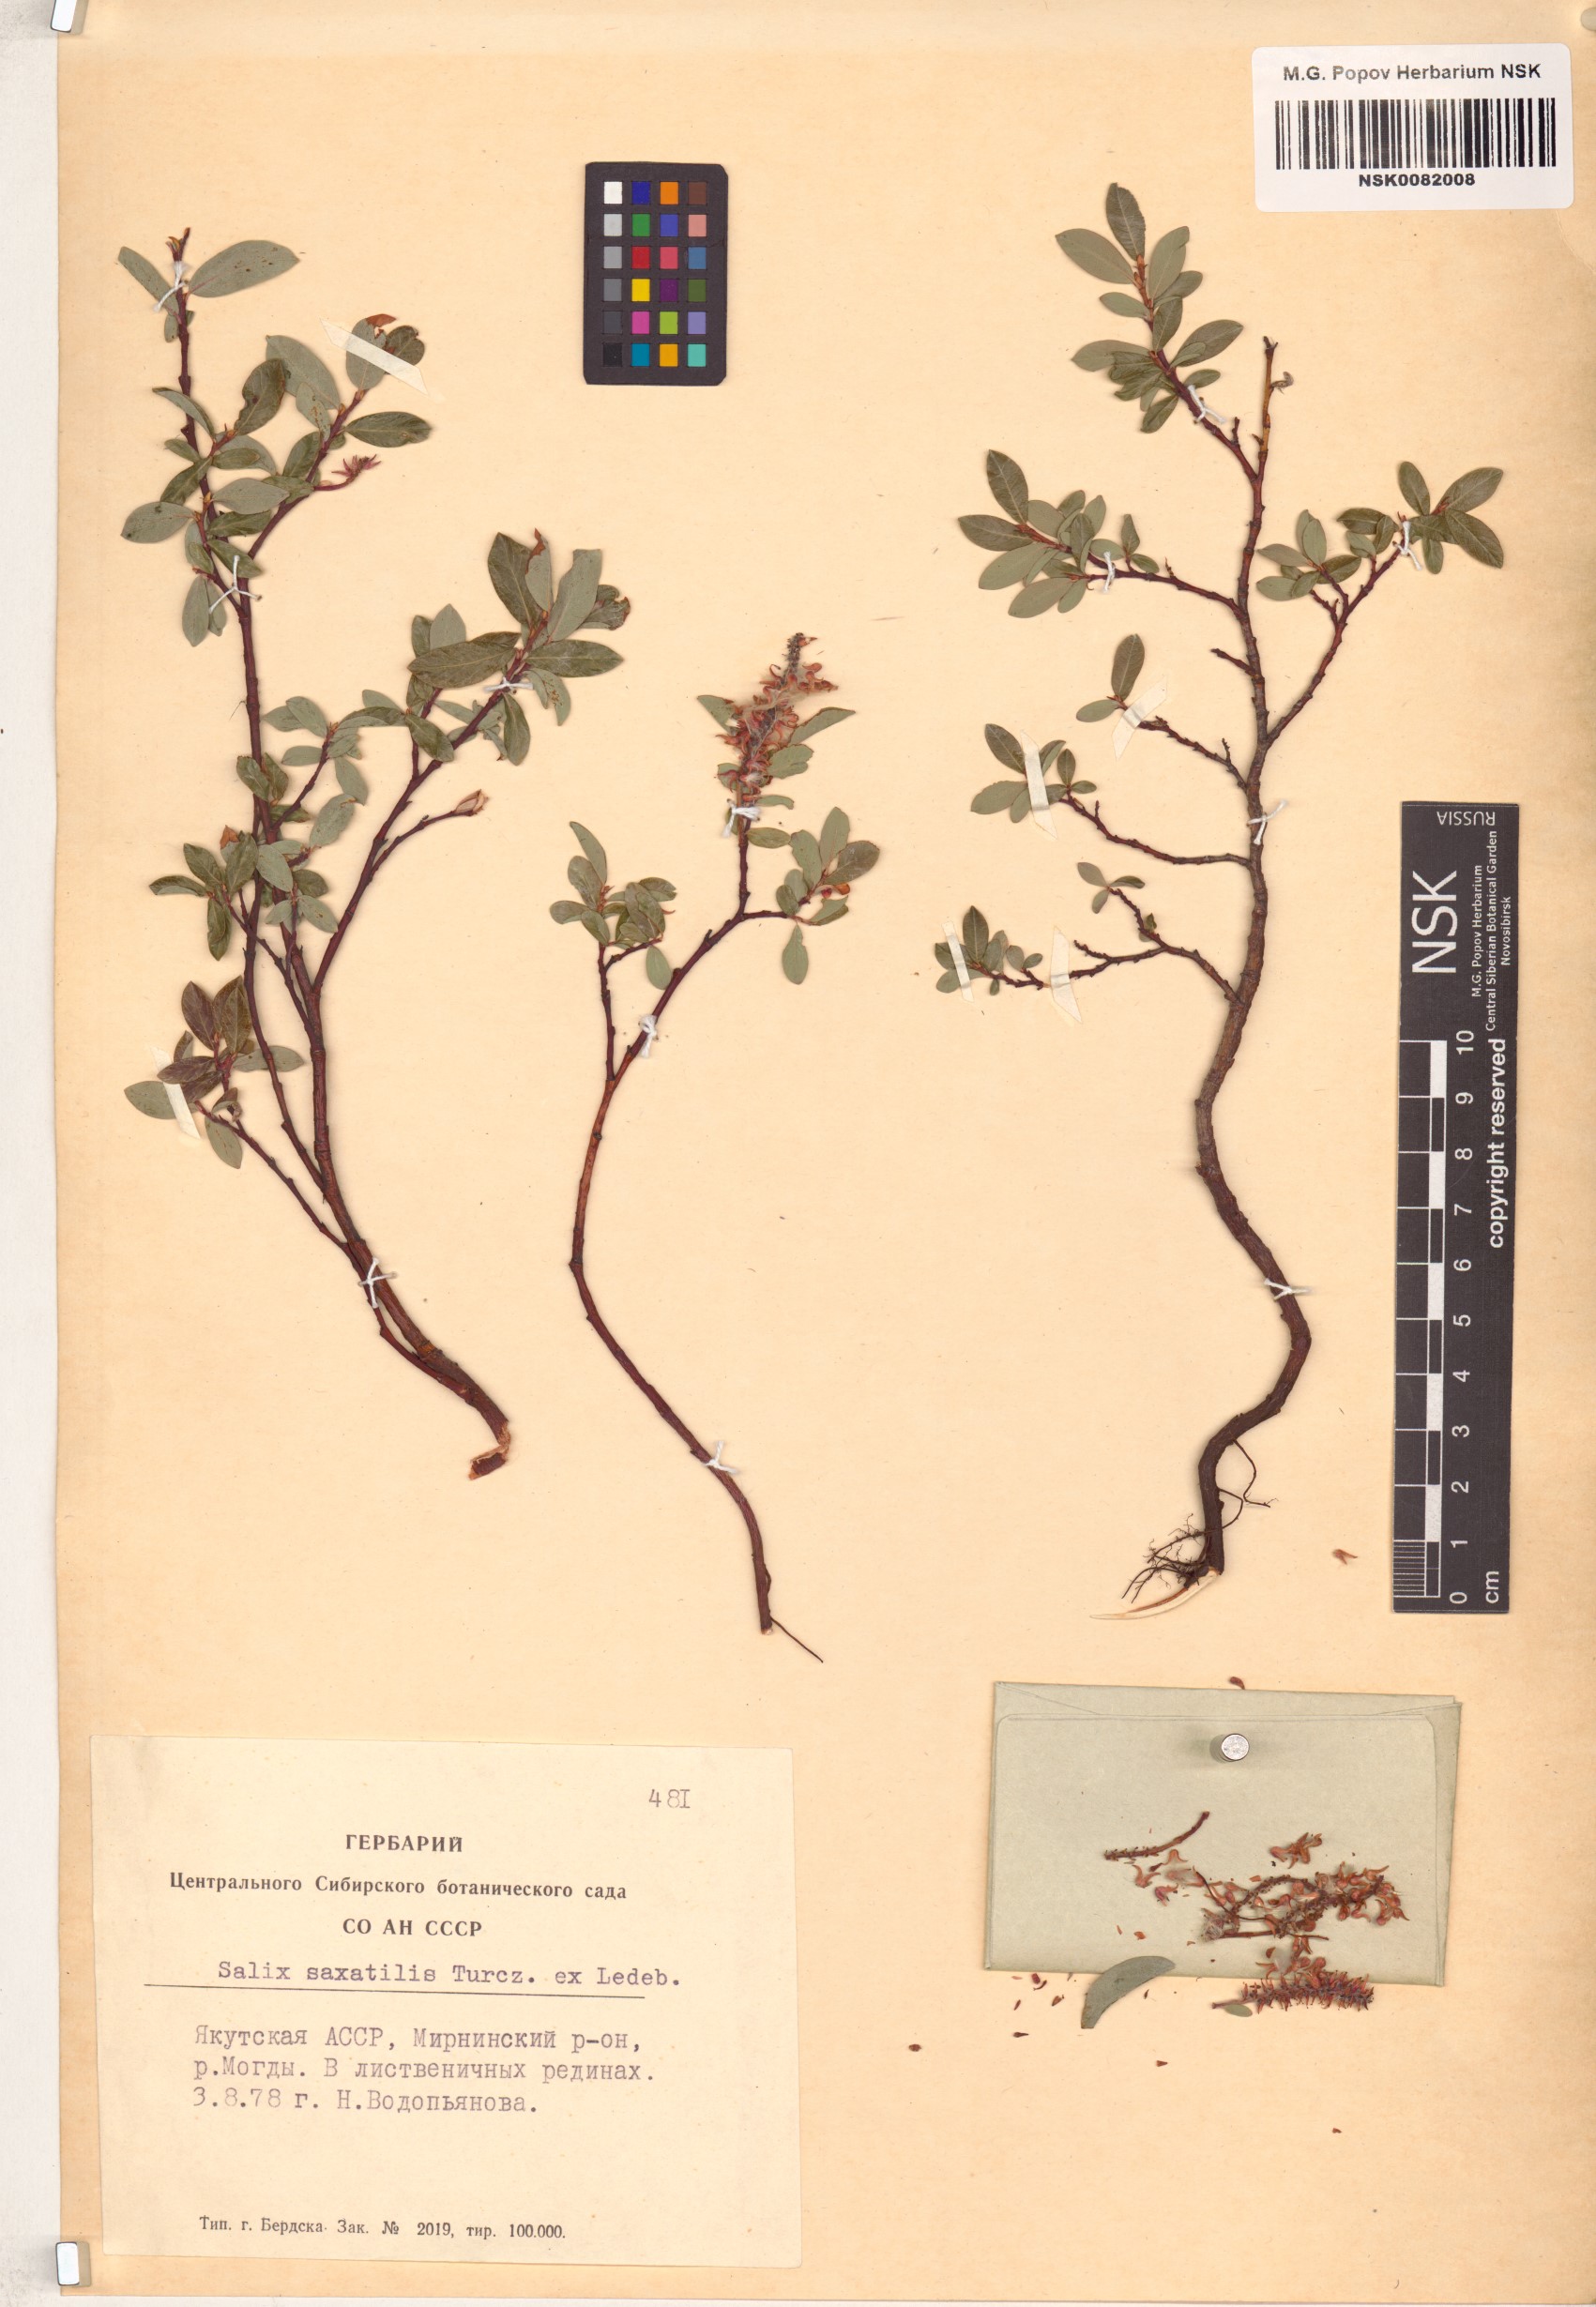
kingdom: Plantae
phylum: Tracheophyta
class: Magnoliopsida
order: Malpighiales
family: Salicaceae
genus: Salix
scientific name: Salix saxatilis
